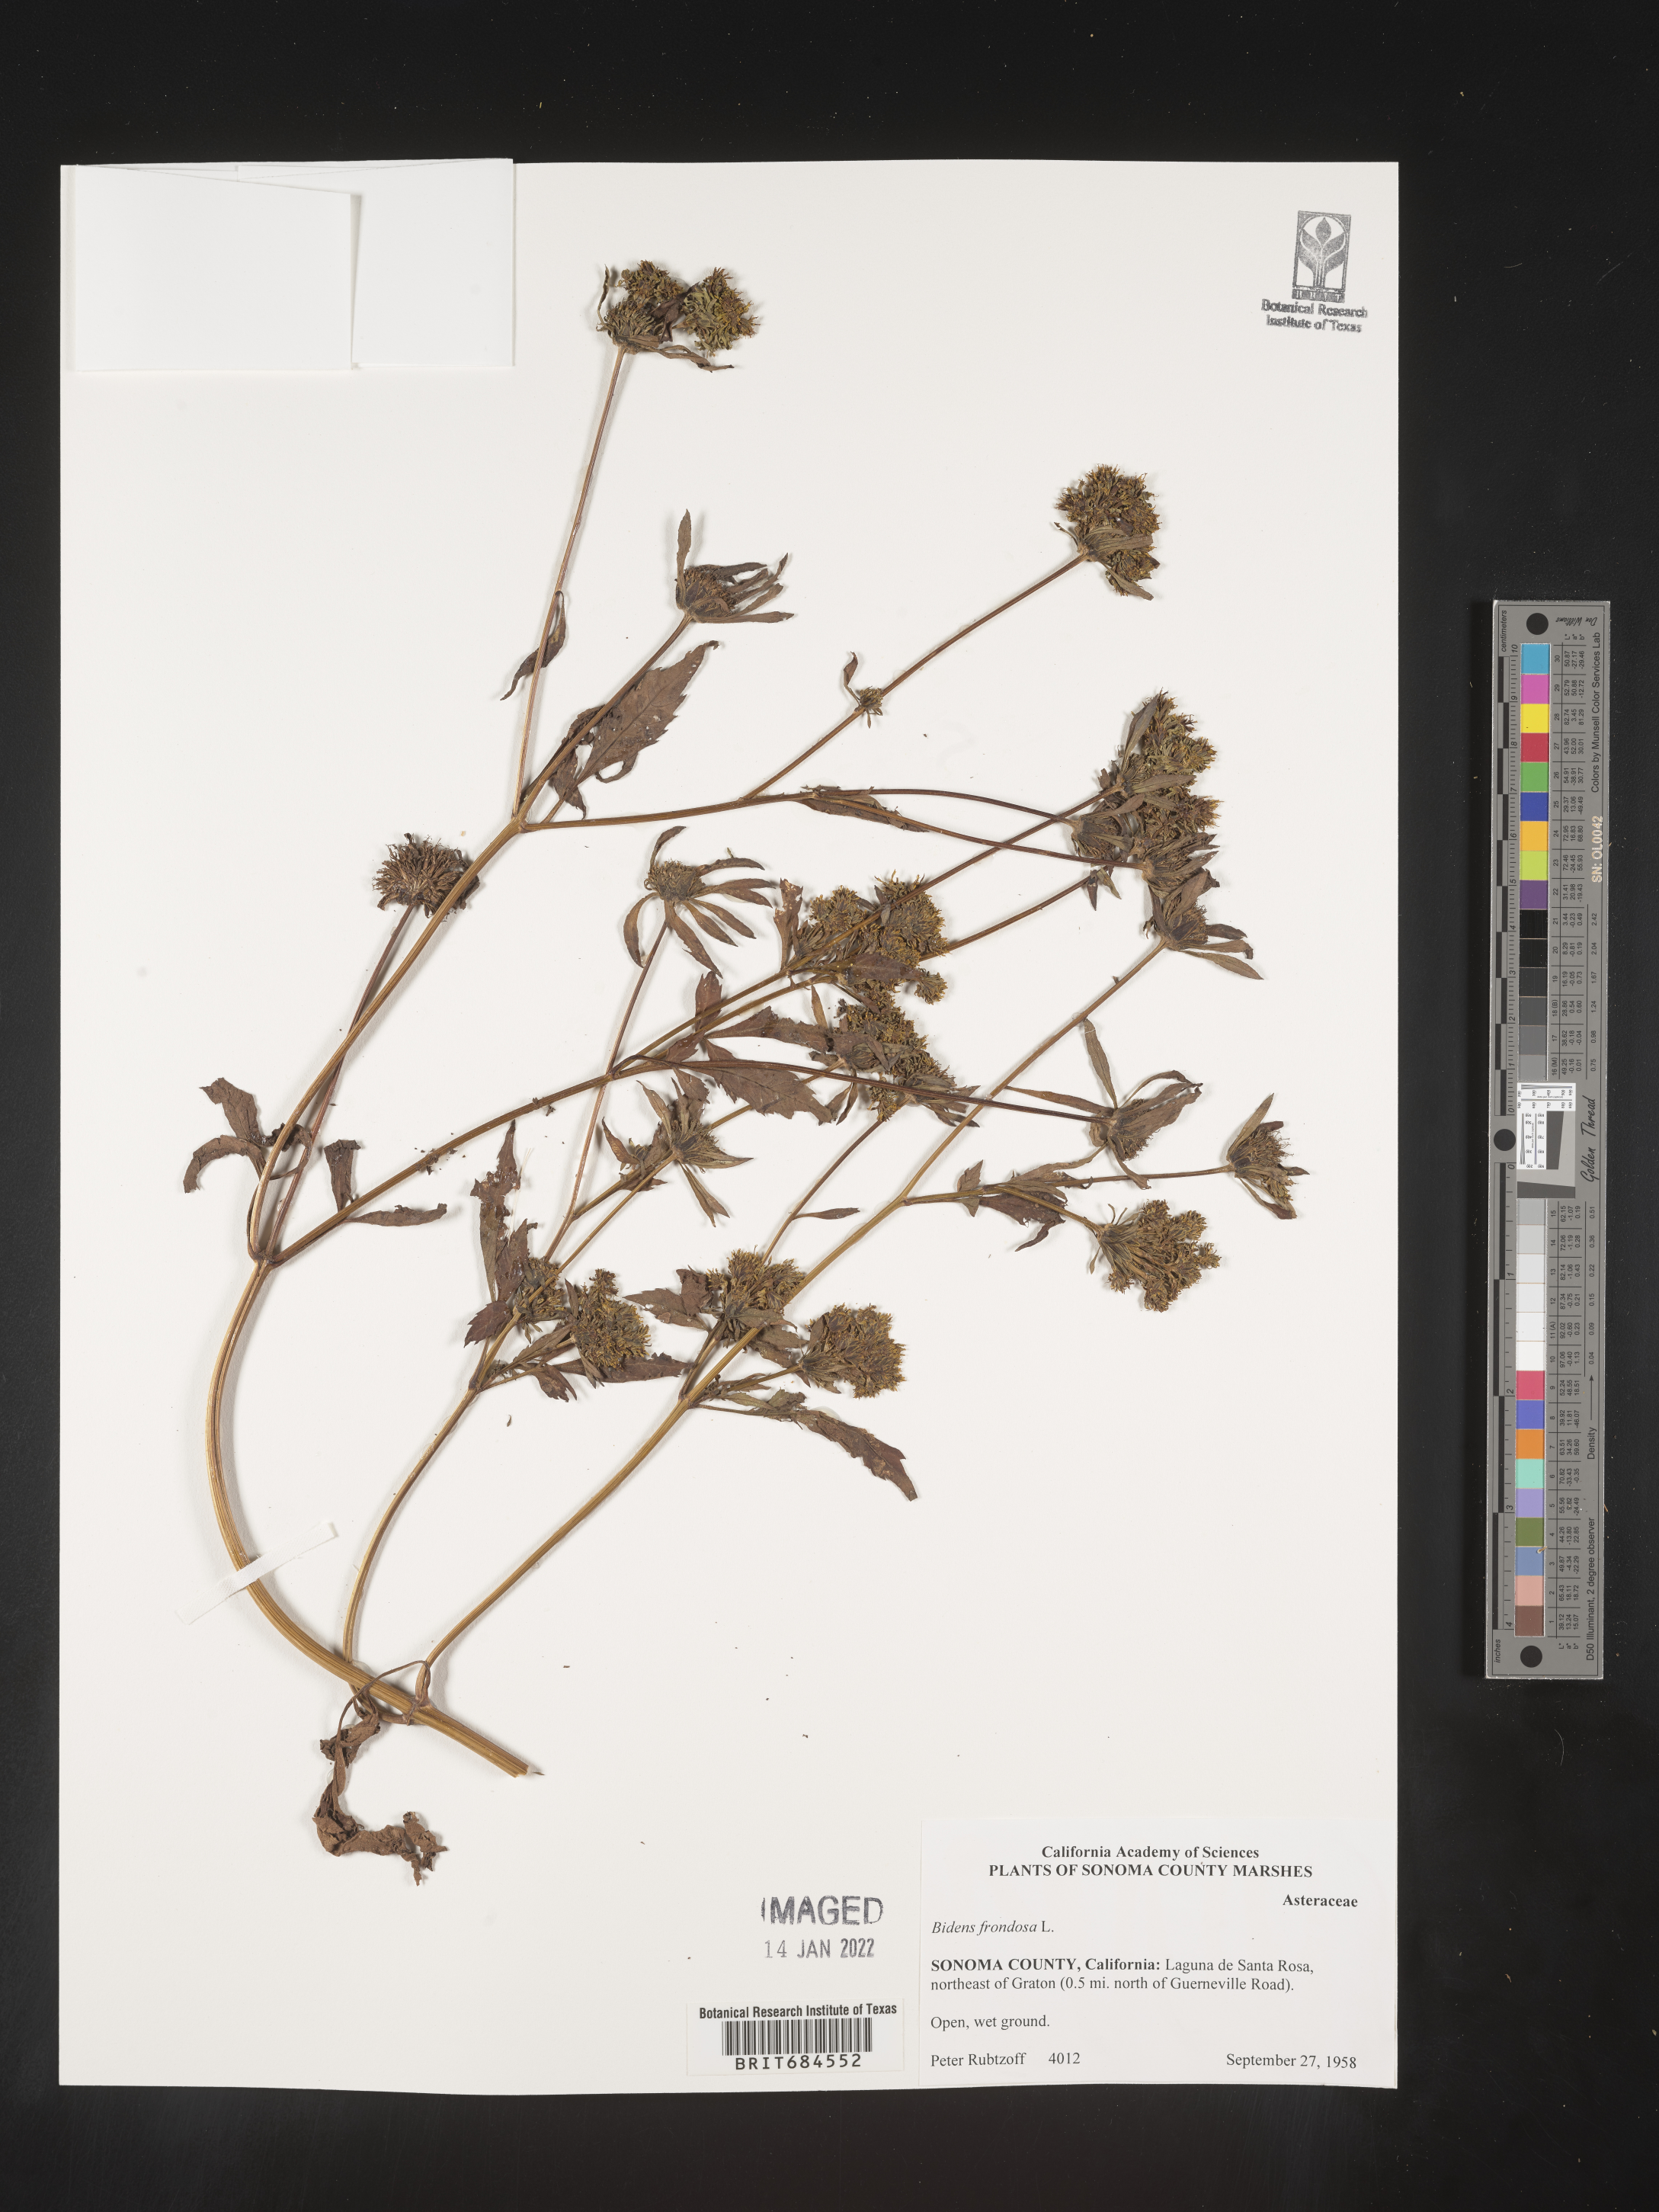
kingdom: Plantae
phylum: Tracheophyta
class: Magnoliopsida
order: Asterales
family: Asteraceae
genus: Bidens
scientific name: Bidens frondosa
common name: Beggarticks
